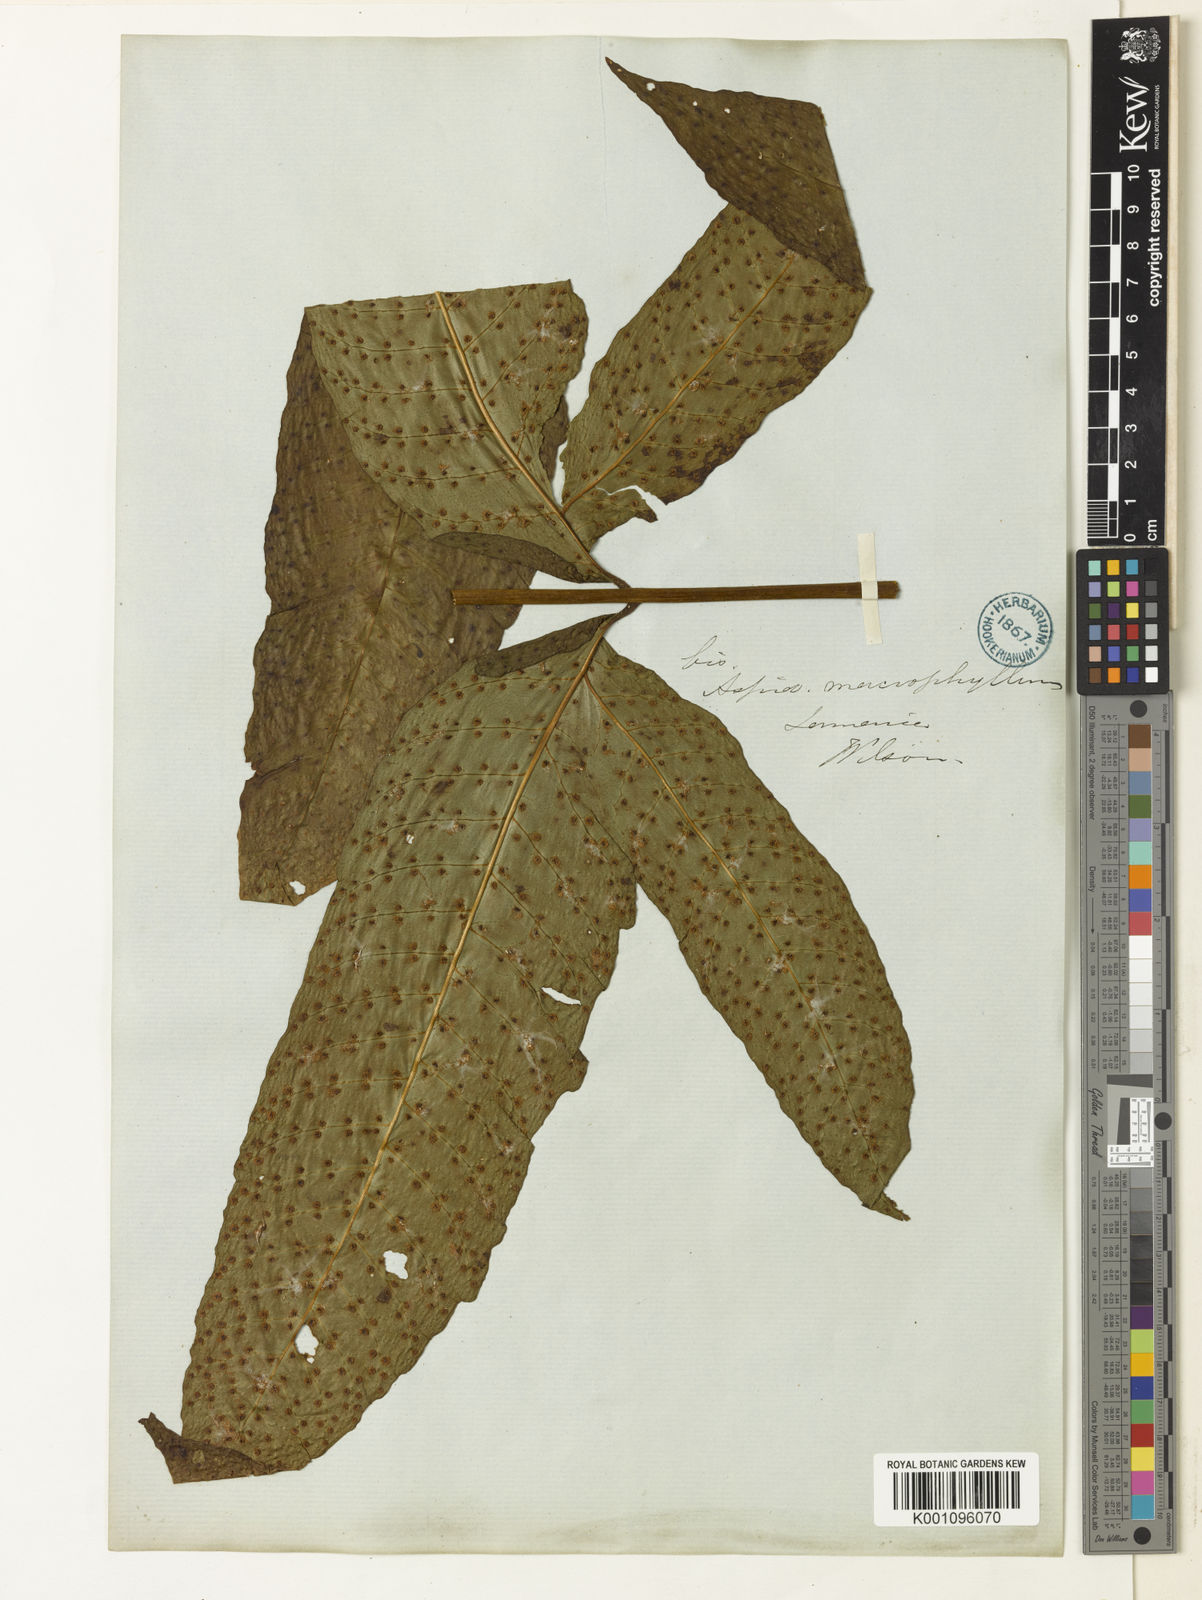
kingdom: Plantae
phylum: Tracheophyta
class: Polypodiopsida
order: Polypodiales
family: Tectariaceae
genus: Tectaria
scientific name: Tectaria incisa
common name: Incised halberd fern
